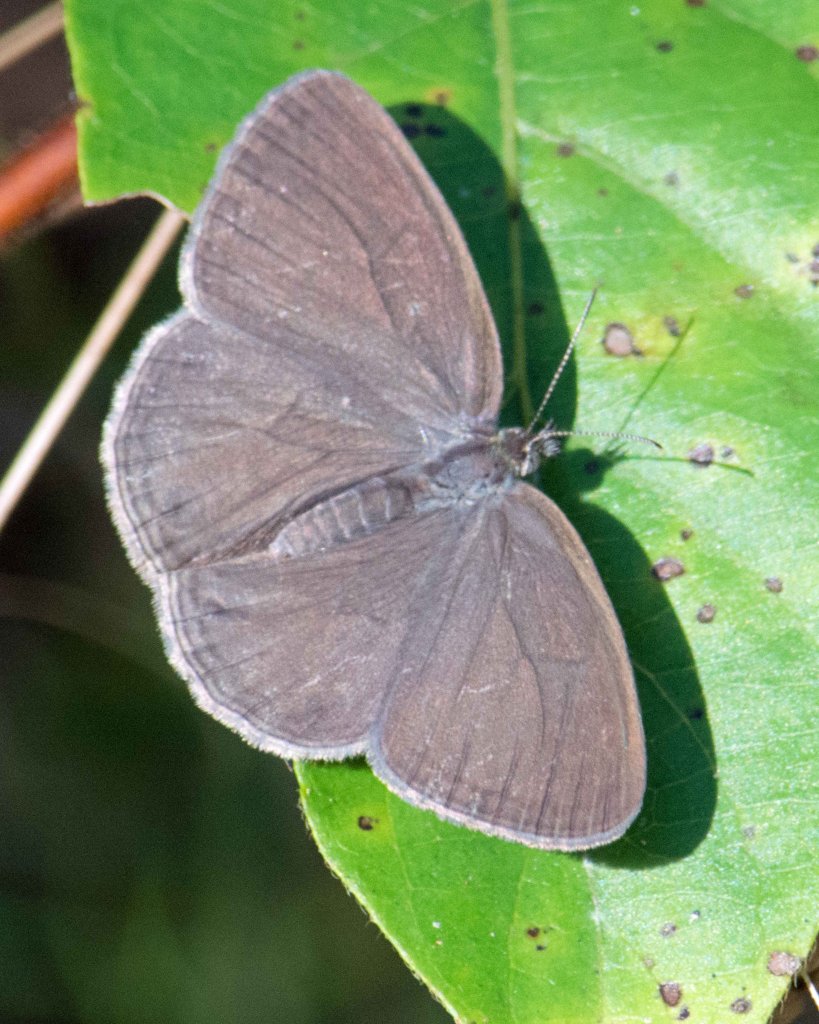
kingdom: Animalia
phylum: Arthropoda
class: Insecta
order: Lepidoptera
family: Nymphalidae
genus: Hermeuptychia
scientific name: Hermeuptychia hermes
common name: Carolina Satyr
